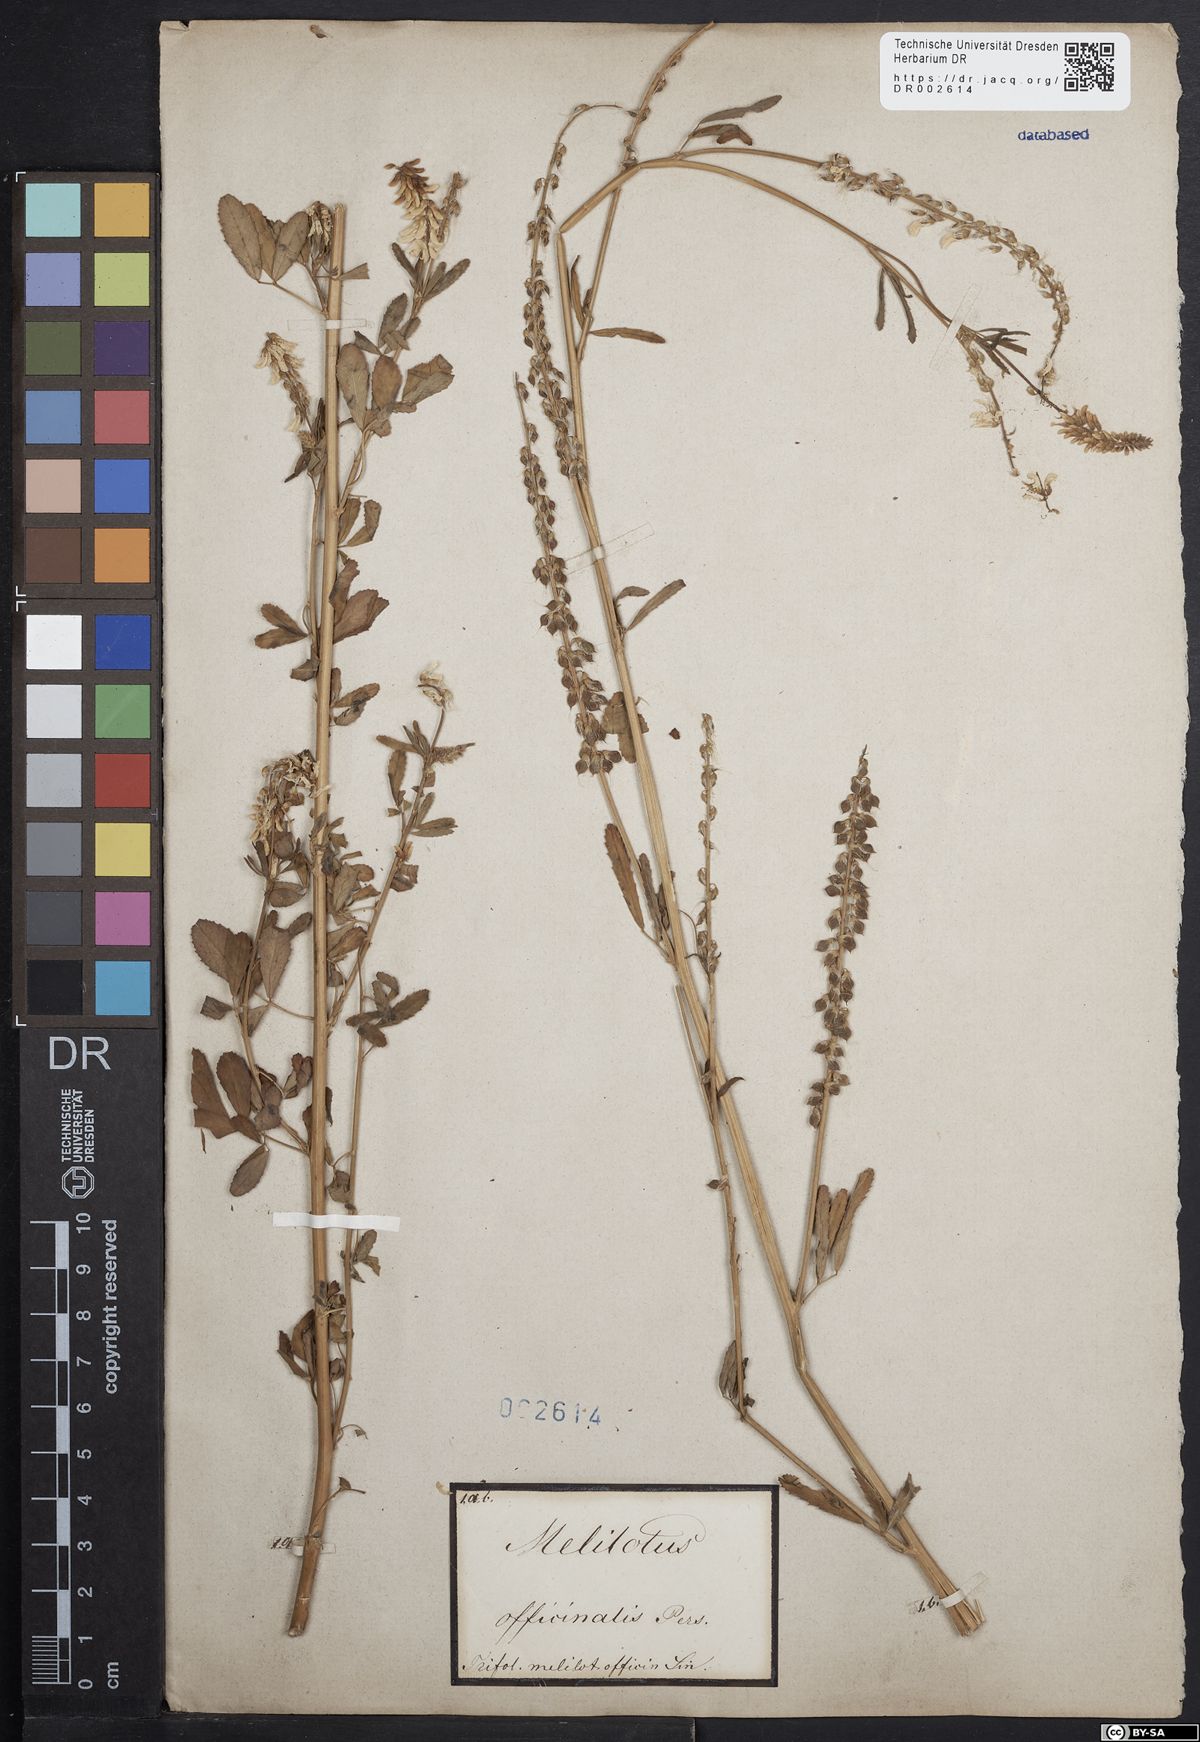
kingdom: Plantae
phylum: Tracheophyta
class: Magnoliopsida
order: Fabales
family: Fabaceae
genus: Melilotus
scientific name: Melilotus officinalis
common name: Sweetclover
